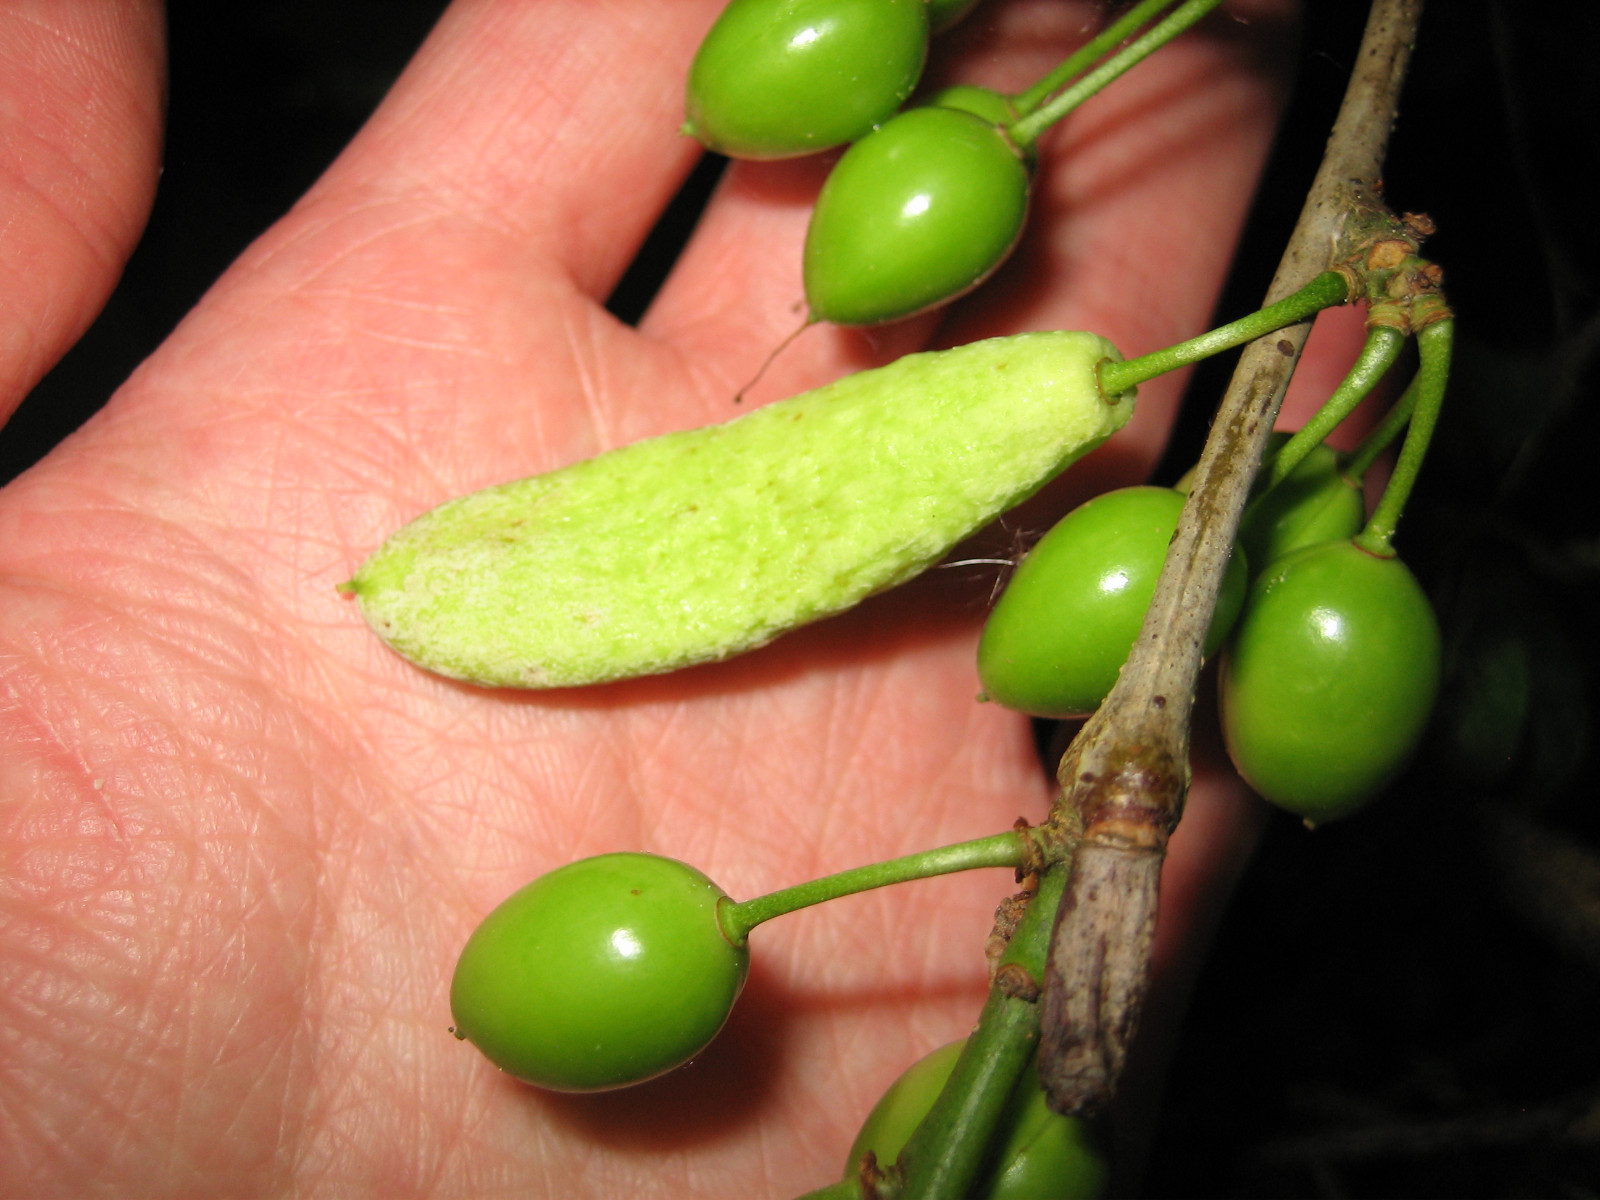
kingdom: Fungi
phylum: Ascomycota
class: Taphrinomycetes
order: Taphrinales
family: Taphrinaceae
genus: Taphrina
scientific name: Taphrina pruni
